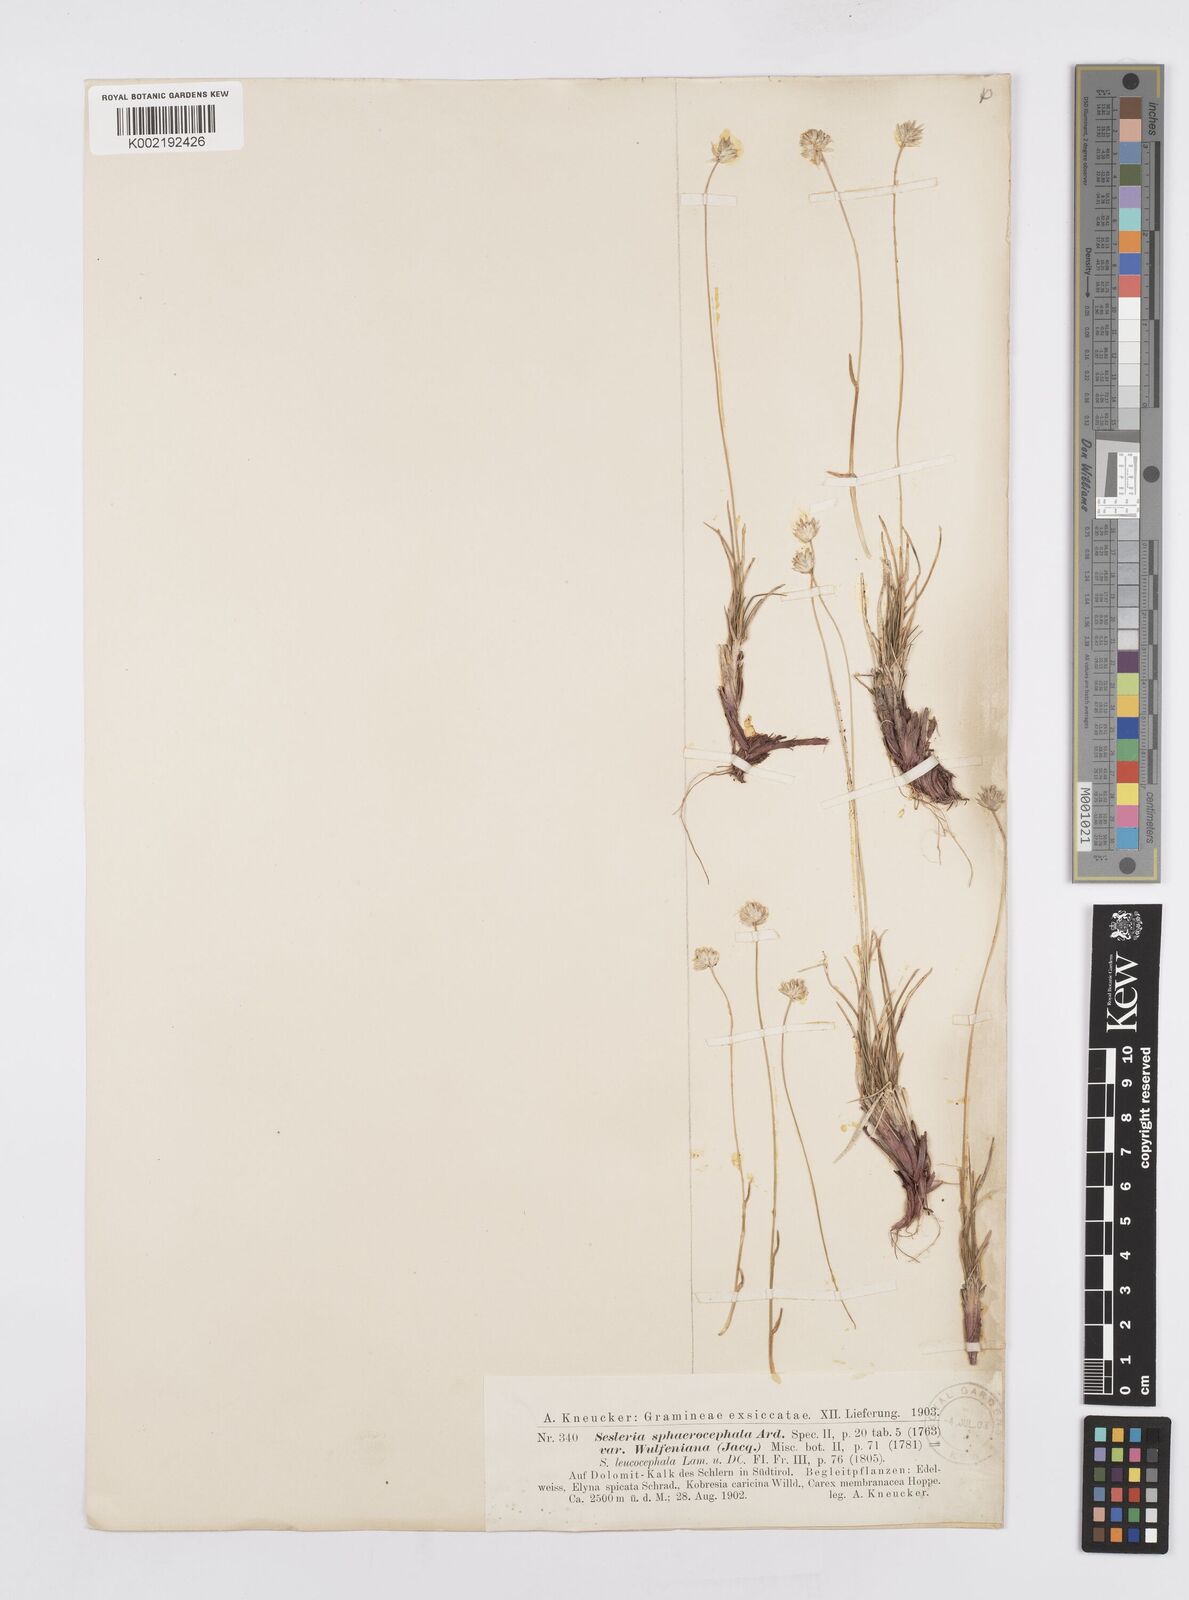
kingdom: Plantae
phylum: Tracheophyta
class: Liliopsida
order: Poales
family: Poaceae
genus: Sesleriella
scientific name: Sesleriella sphaerocephala
